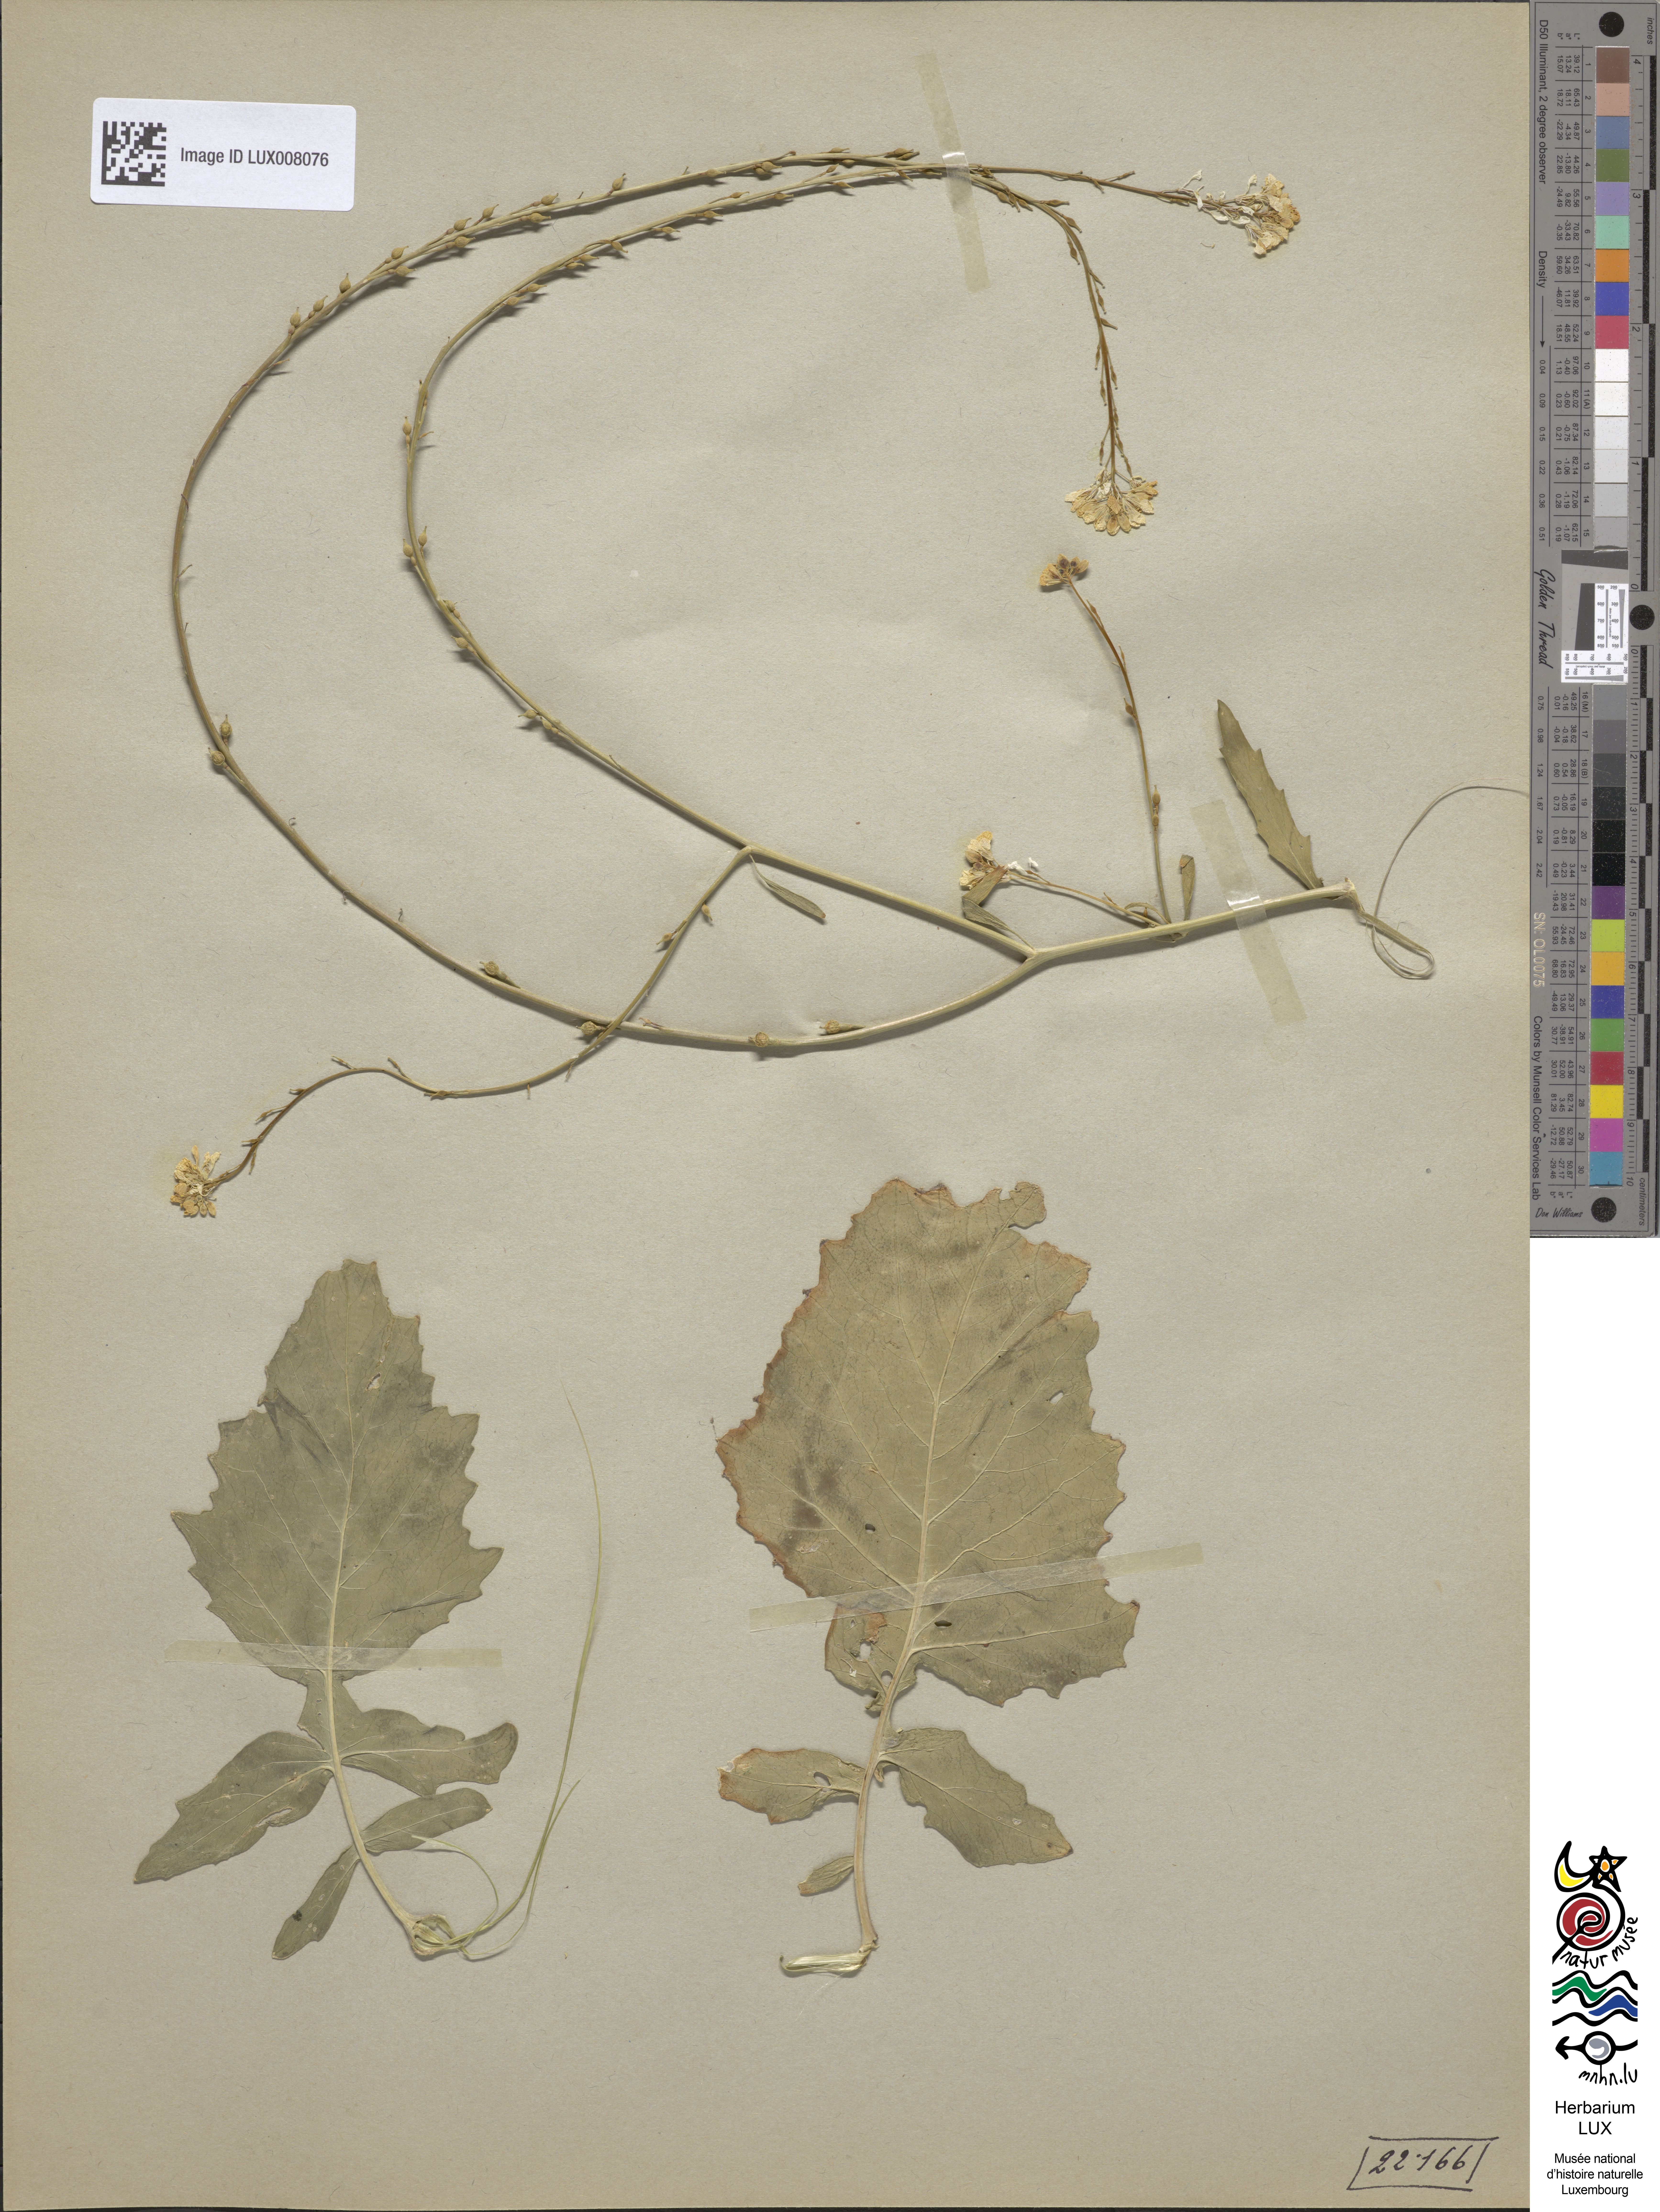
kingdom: Plantae
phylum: Tracheophyta
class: Magnoliopsida
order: Brassicales
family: Brassicaceae
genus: Rapistrum
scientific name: Rapistrum rugosum
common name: Annual bastardcabbage
